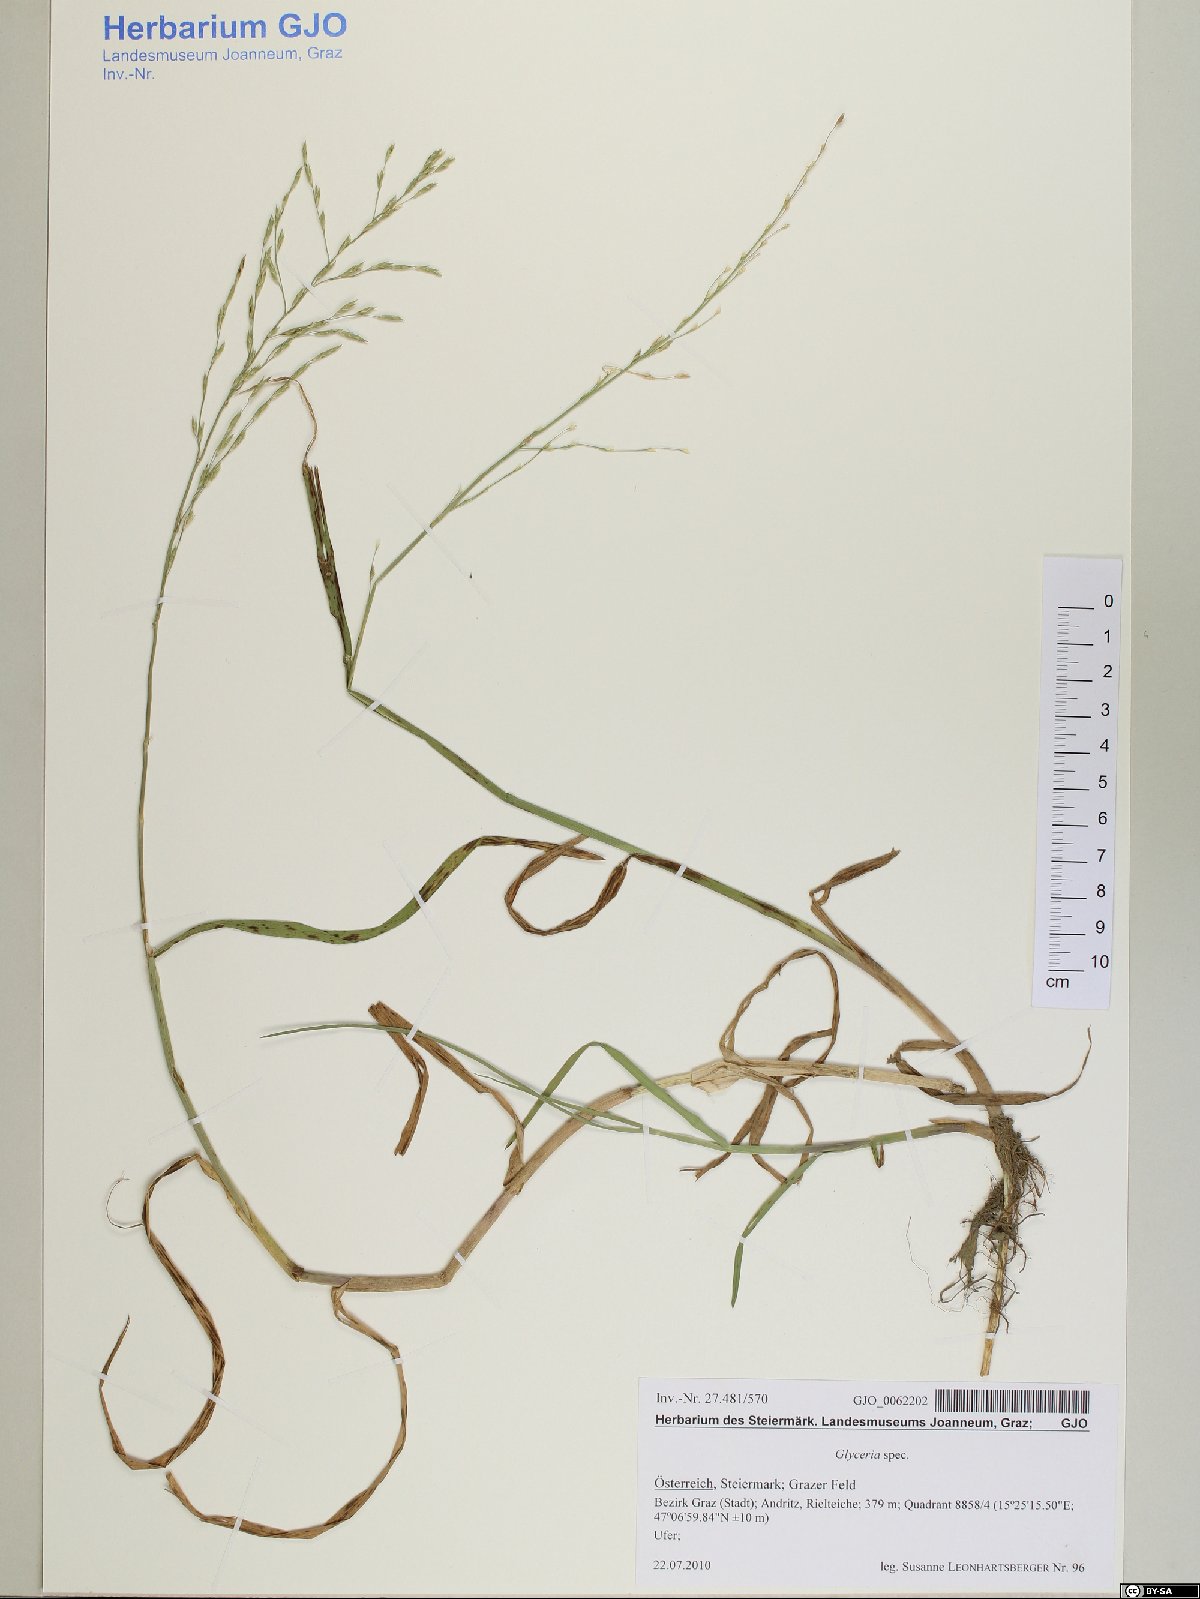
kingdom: Plantae
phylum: Tracheophyta
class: Liliopsida
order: Poales
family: Poaceae
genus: Glyceria
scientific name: Glyceria
